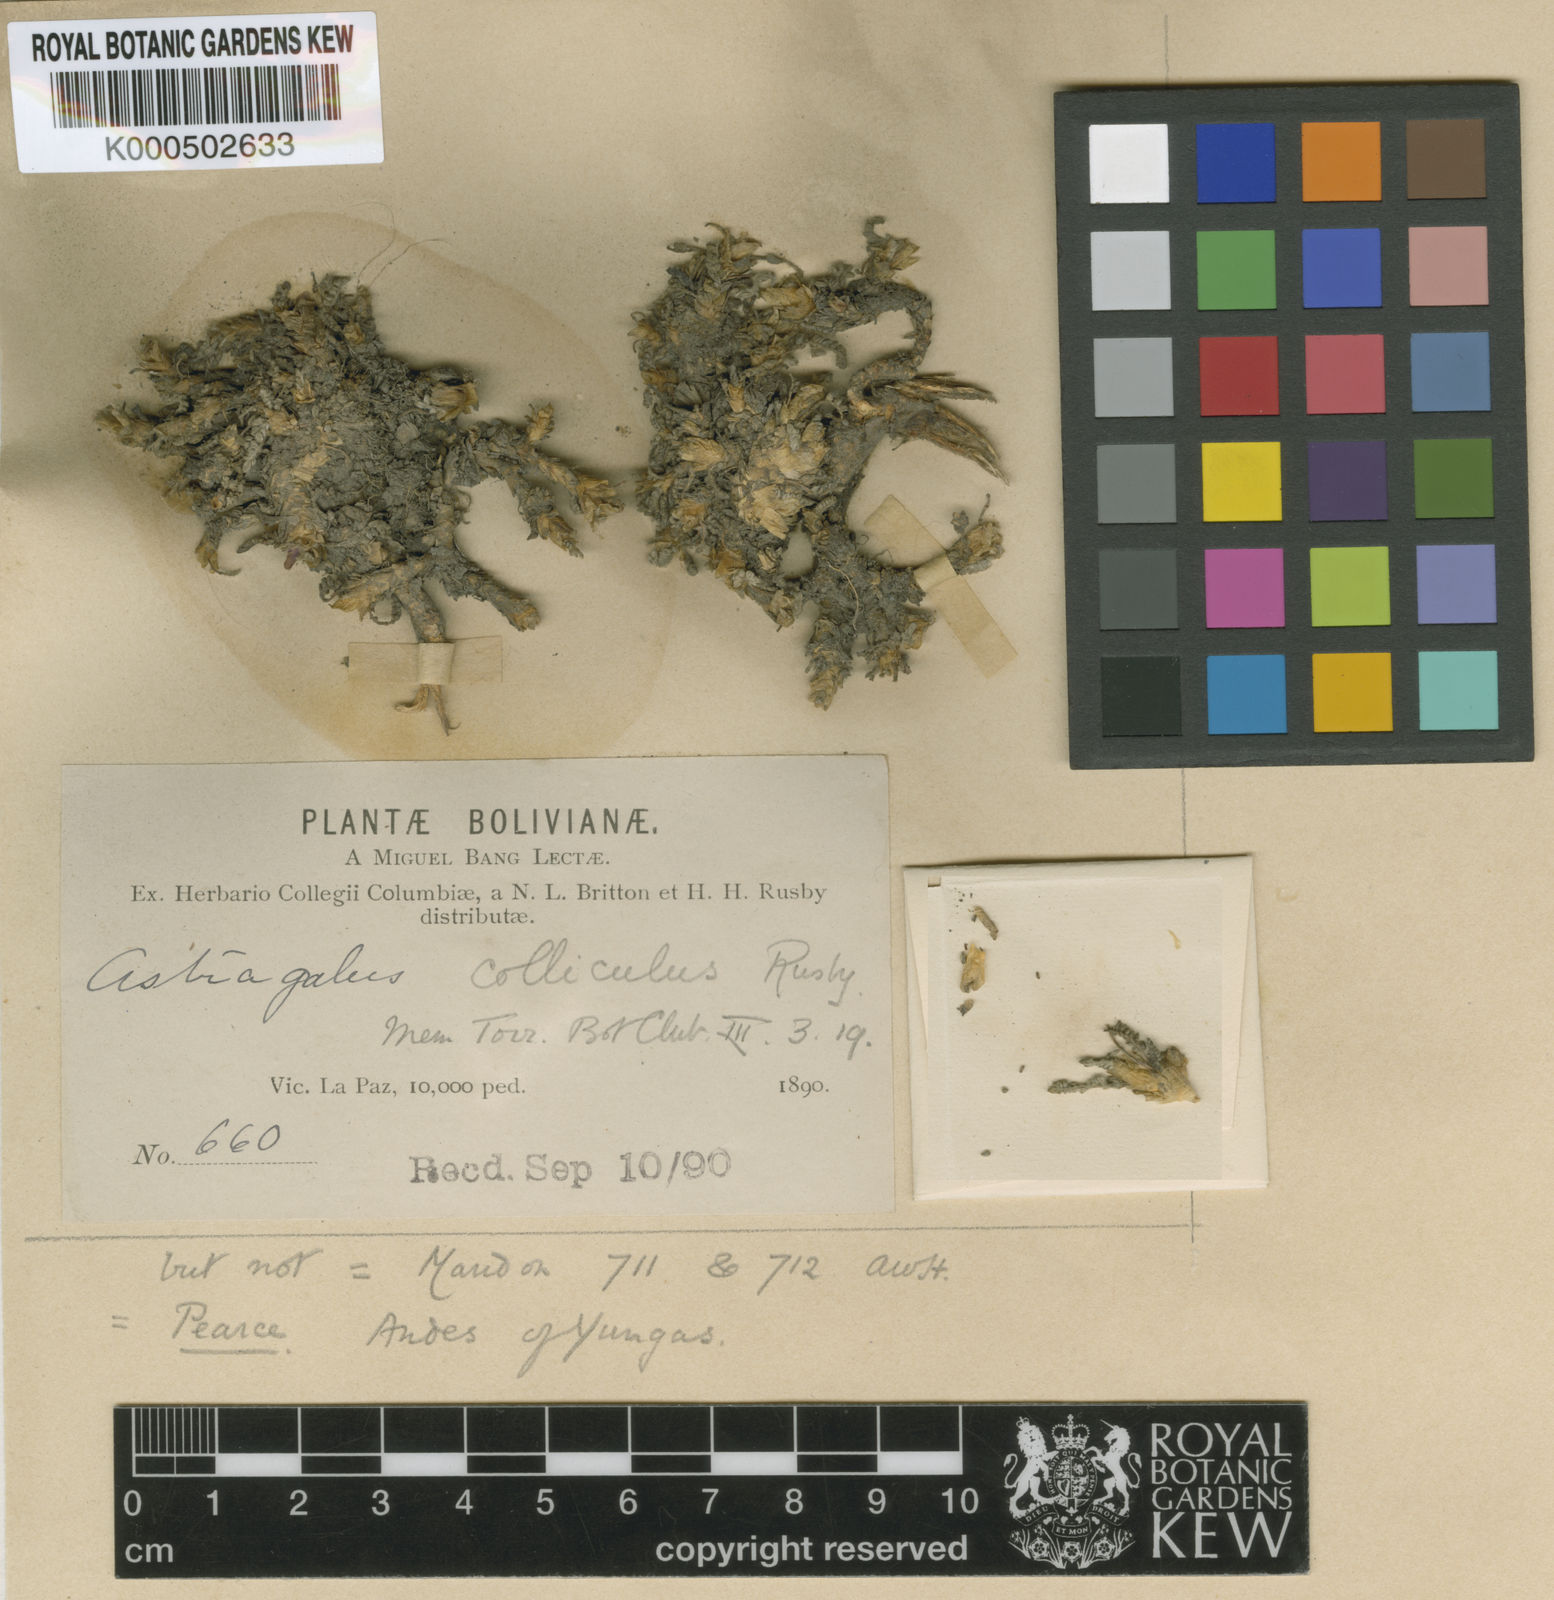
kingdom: Plantae
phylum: Tracheophyta
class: Magnoliopsida
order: Fabales
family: Fabaceae
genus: Astragalus
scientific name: Astragalus minimus
